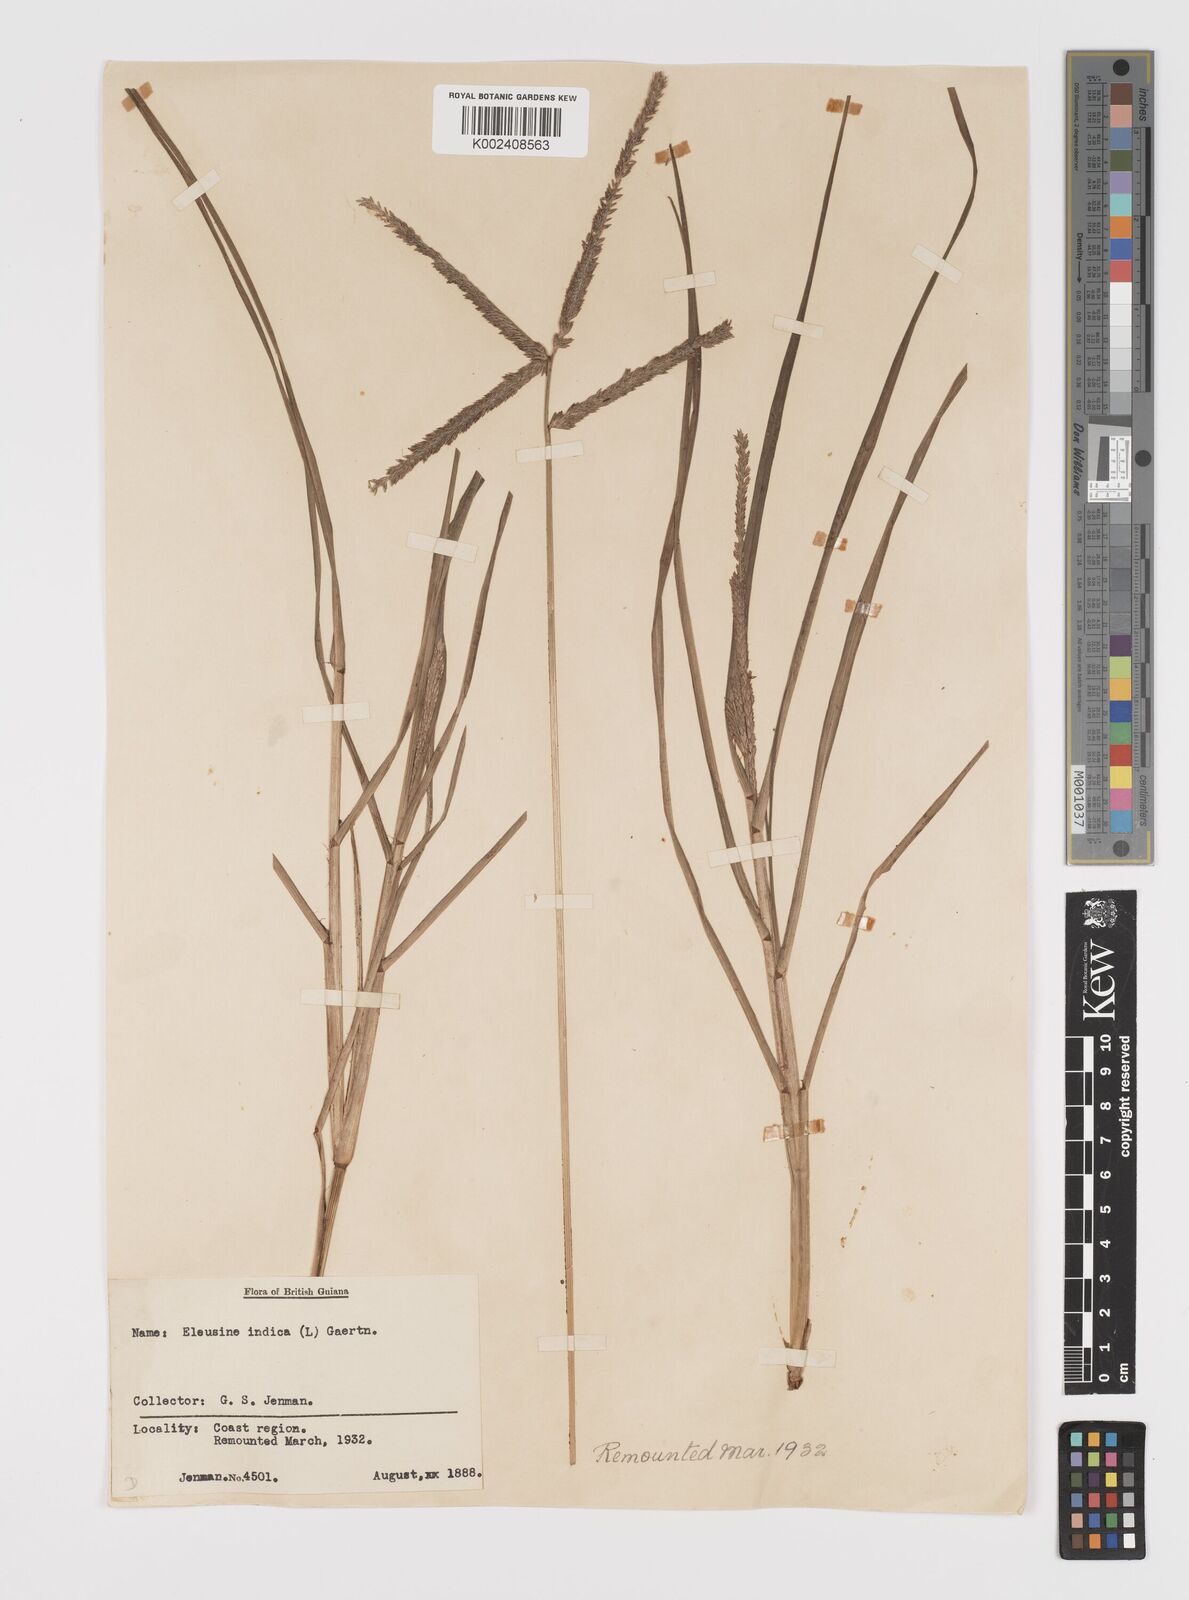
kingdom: Plantae
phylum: Tracheophyta
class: Liliopsida
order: Poales
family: Poaceae
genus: Eleusine
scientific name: Eleusine indica
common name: Yard-grass
